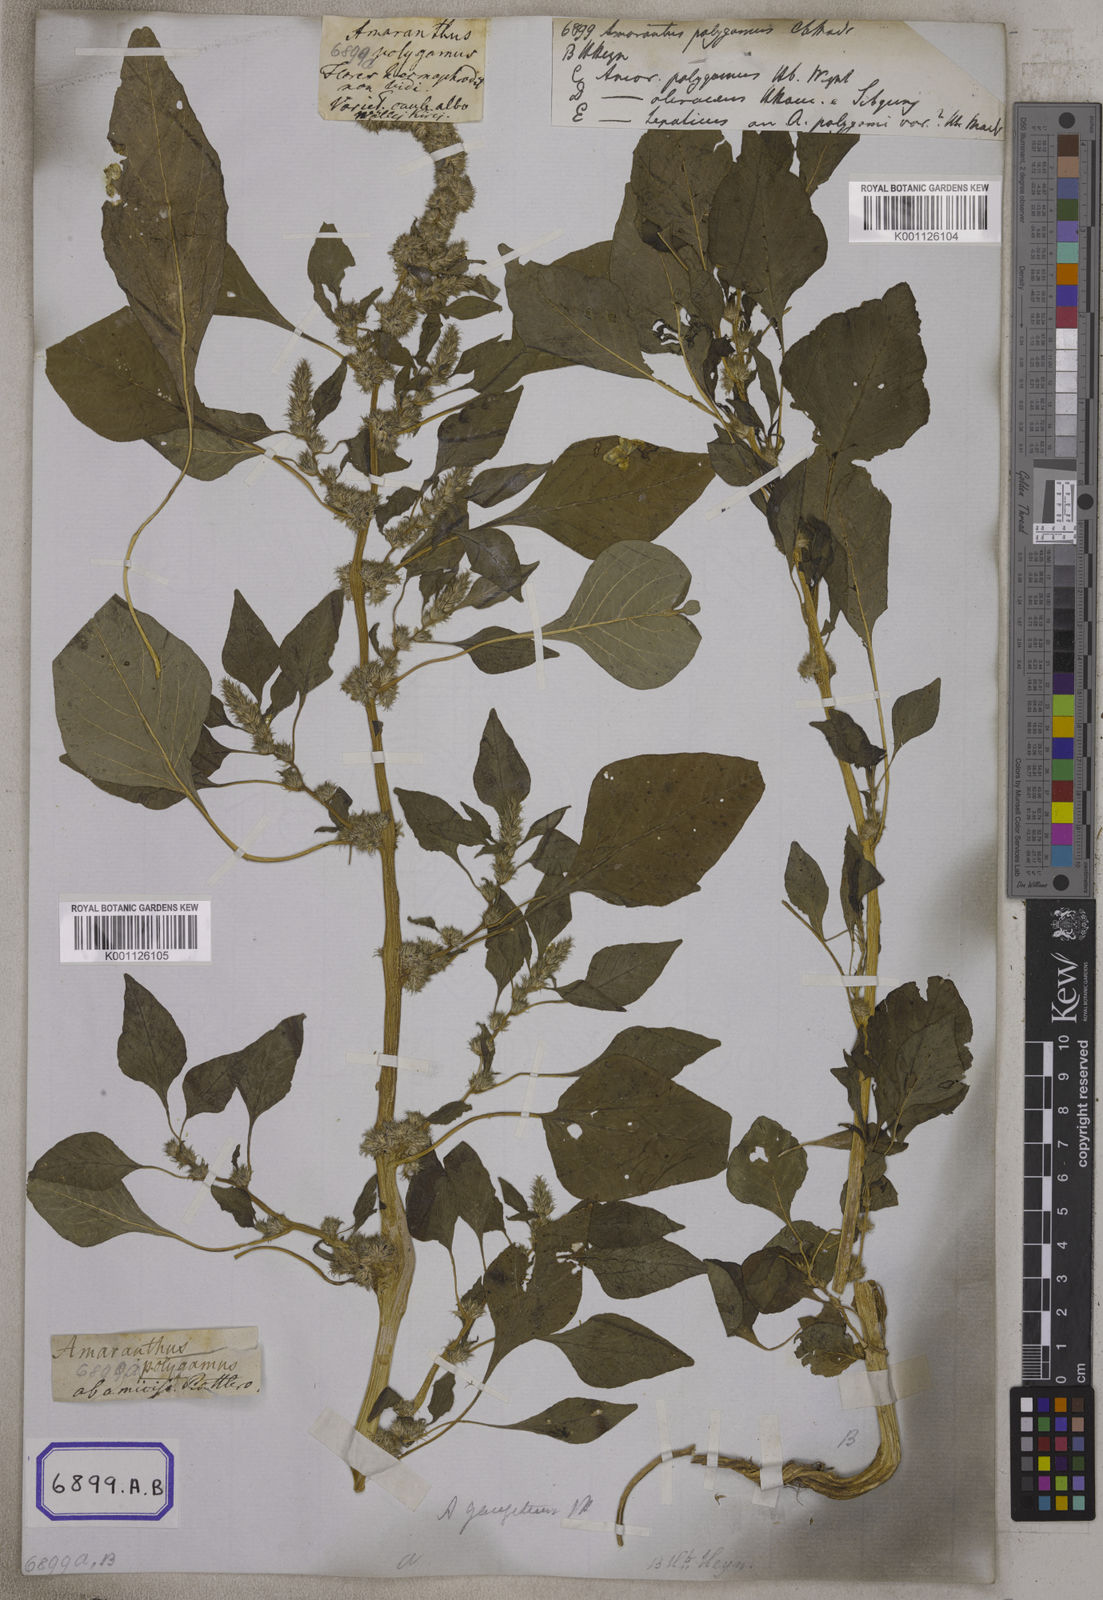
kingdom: Plantae
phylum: Tracheophyta
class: Magnoliopsida
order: Caryophyllales
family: Amaranthaceae
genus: Amaranthus
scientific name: Amaranthus
